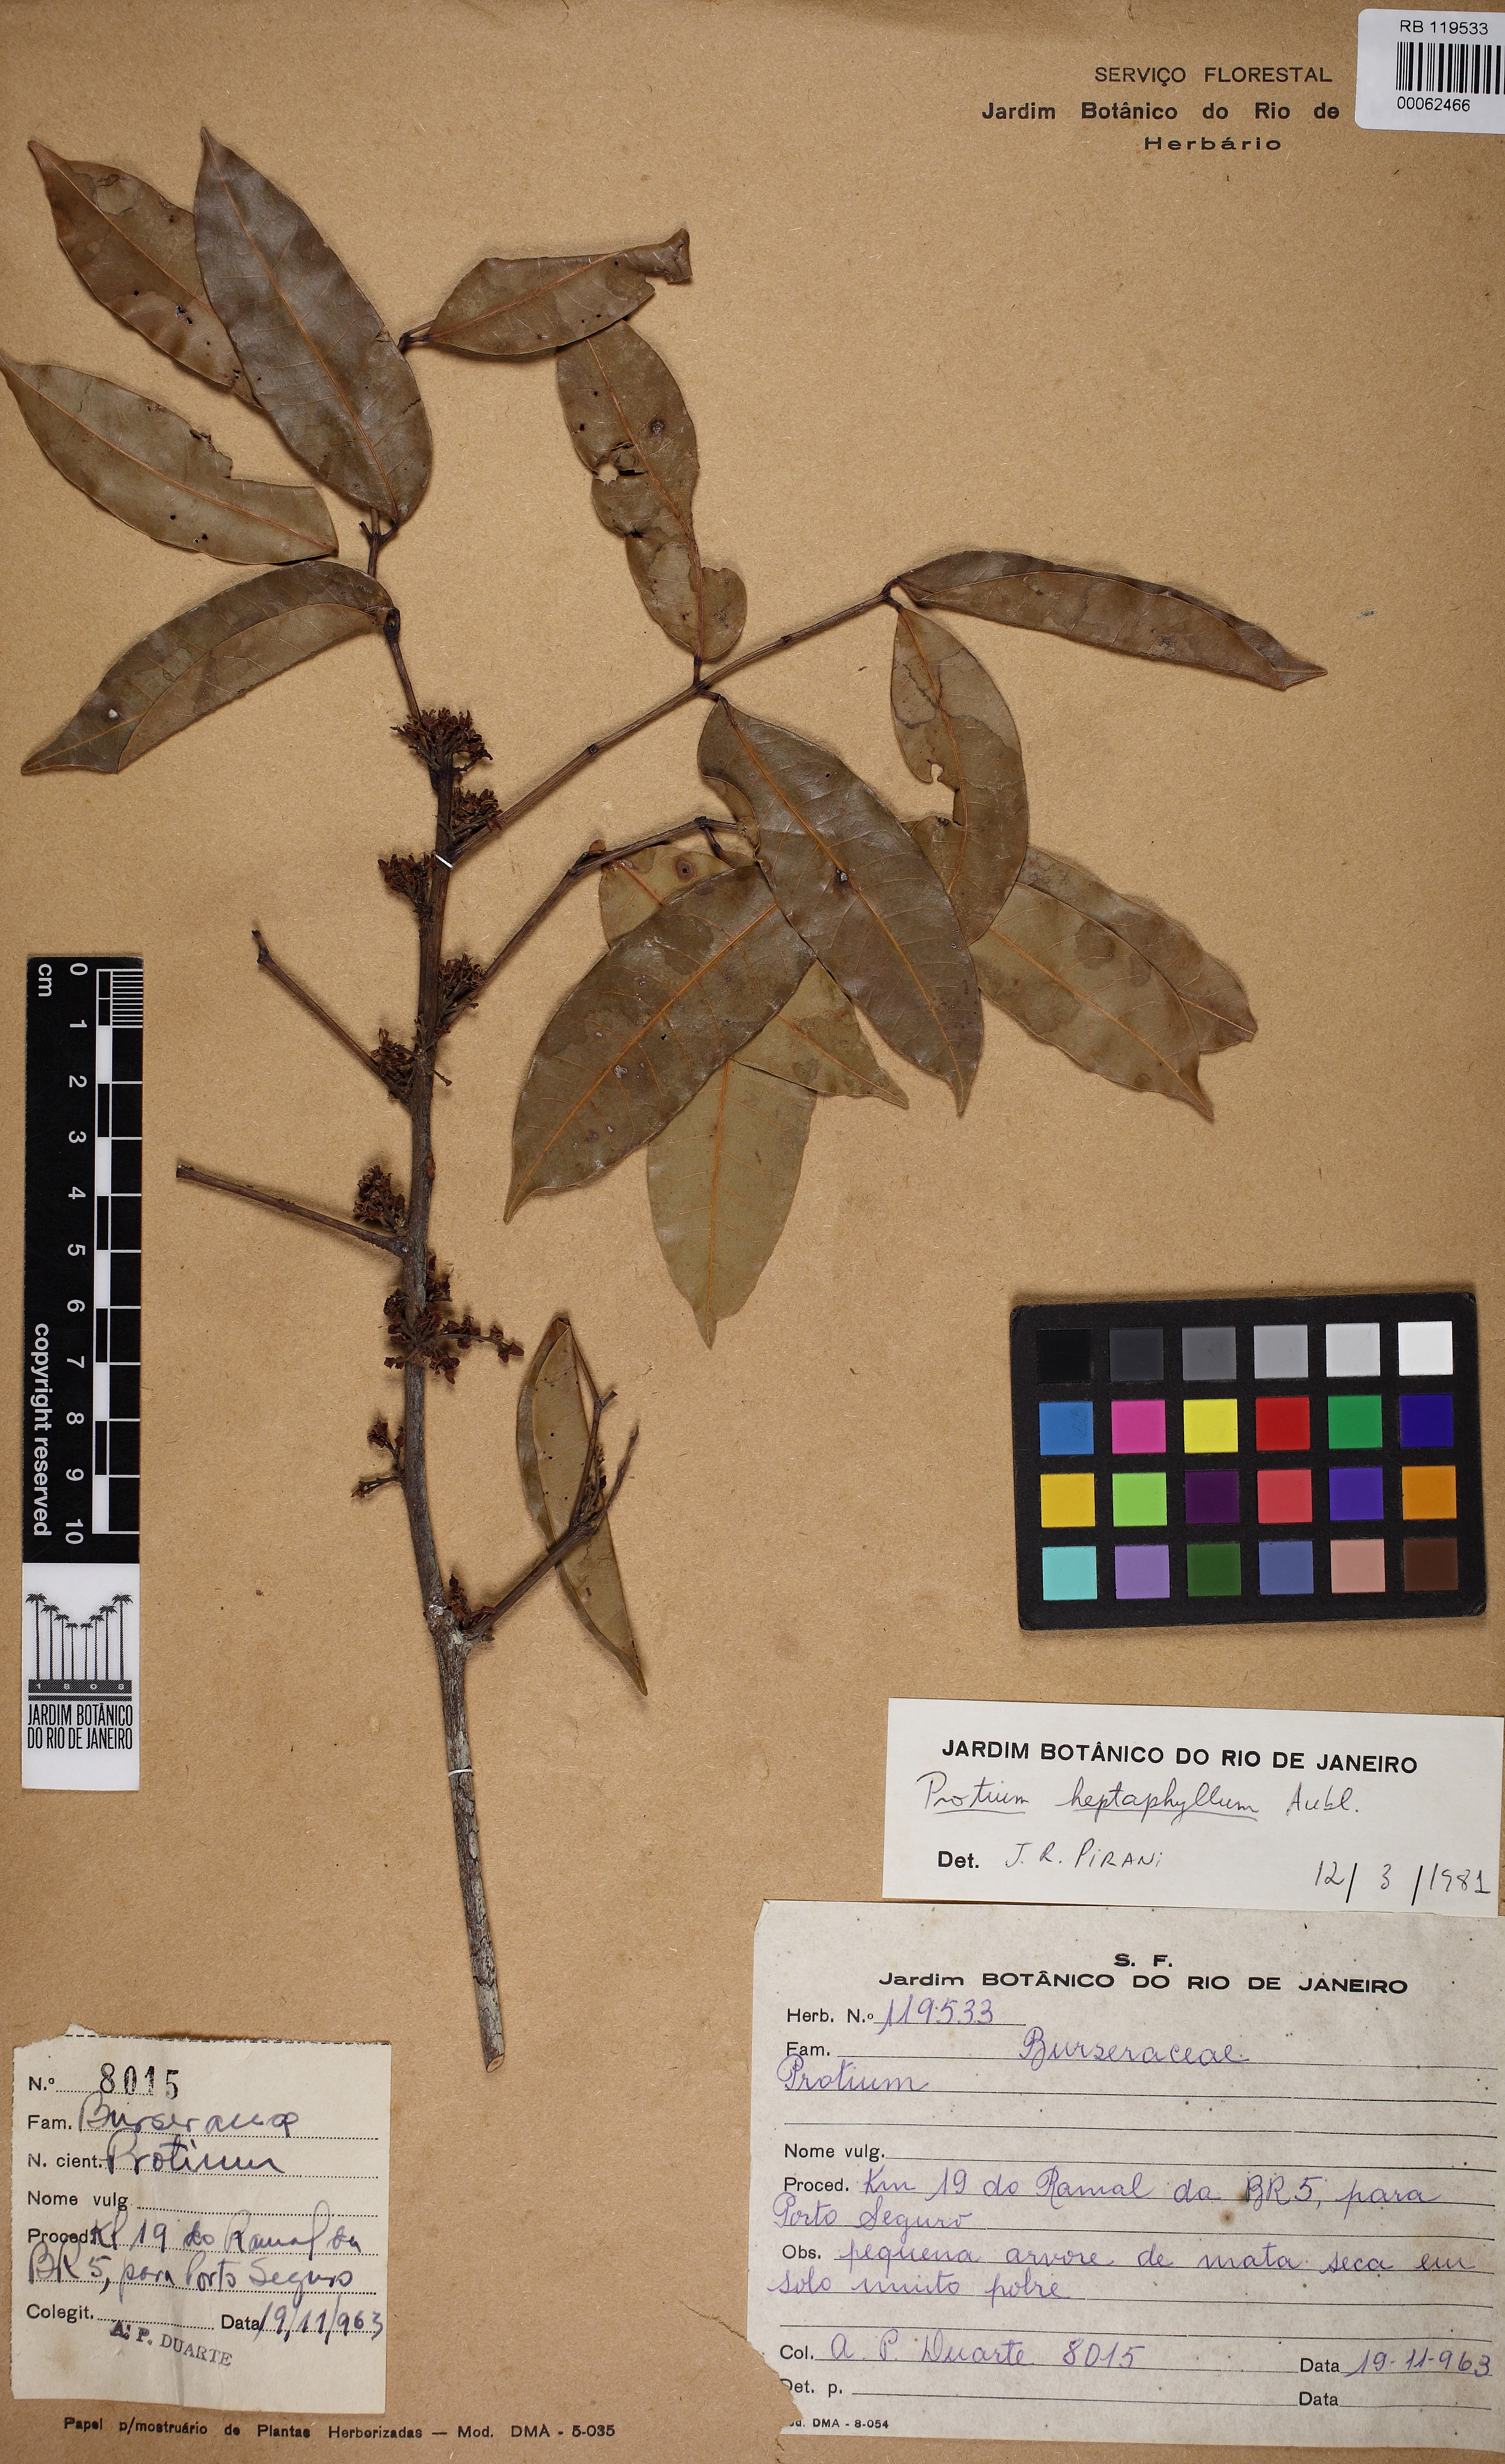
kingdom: Plantae
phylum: Tracheophyta
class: Magnoliopsida
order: Sapindales
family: Burseraceae
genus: Protium
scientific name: Protium heptaphyllum
